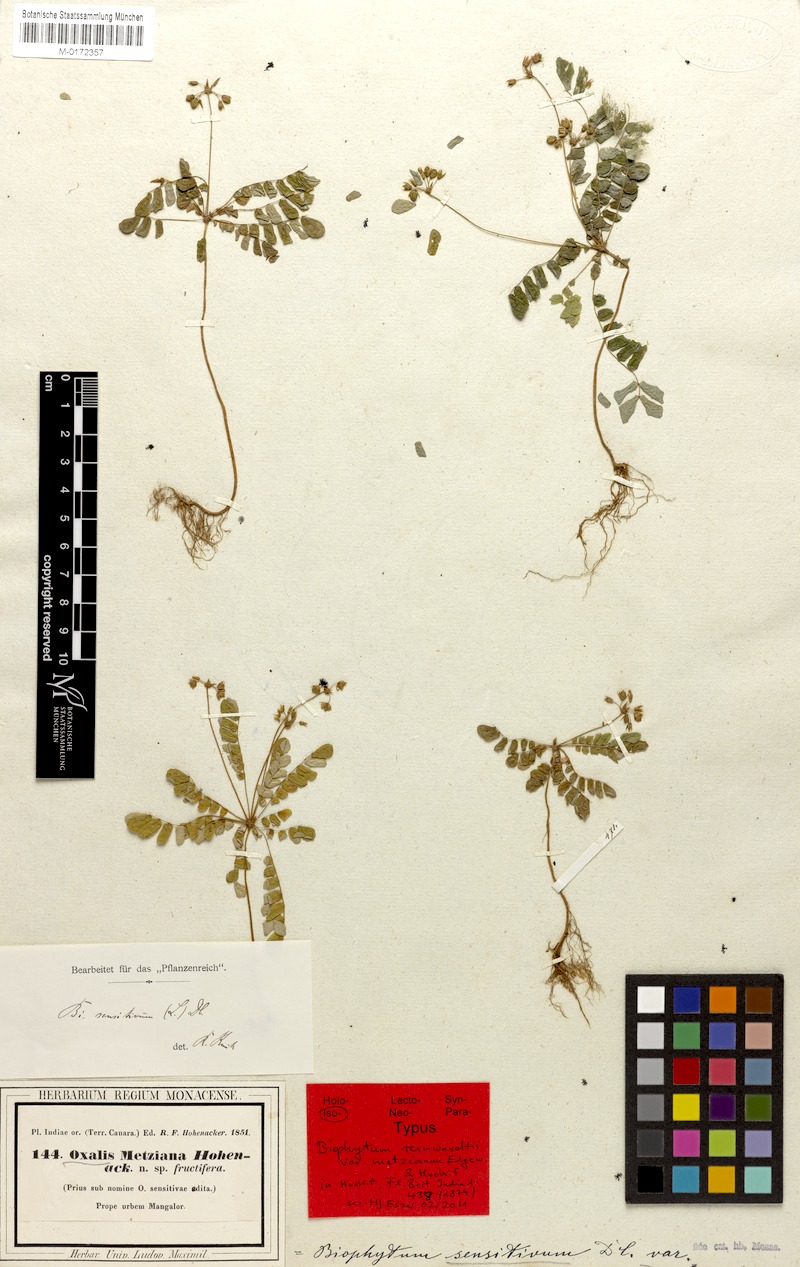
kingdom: Plantae
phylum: Tracheophyta
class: Magnoliopsida
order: Oxalidales
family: Oxalidaceae
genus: Biophytum
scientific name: Biophytum sensitivum
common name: Lifeplant
